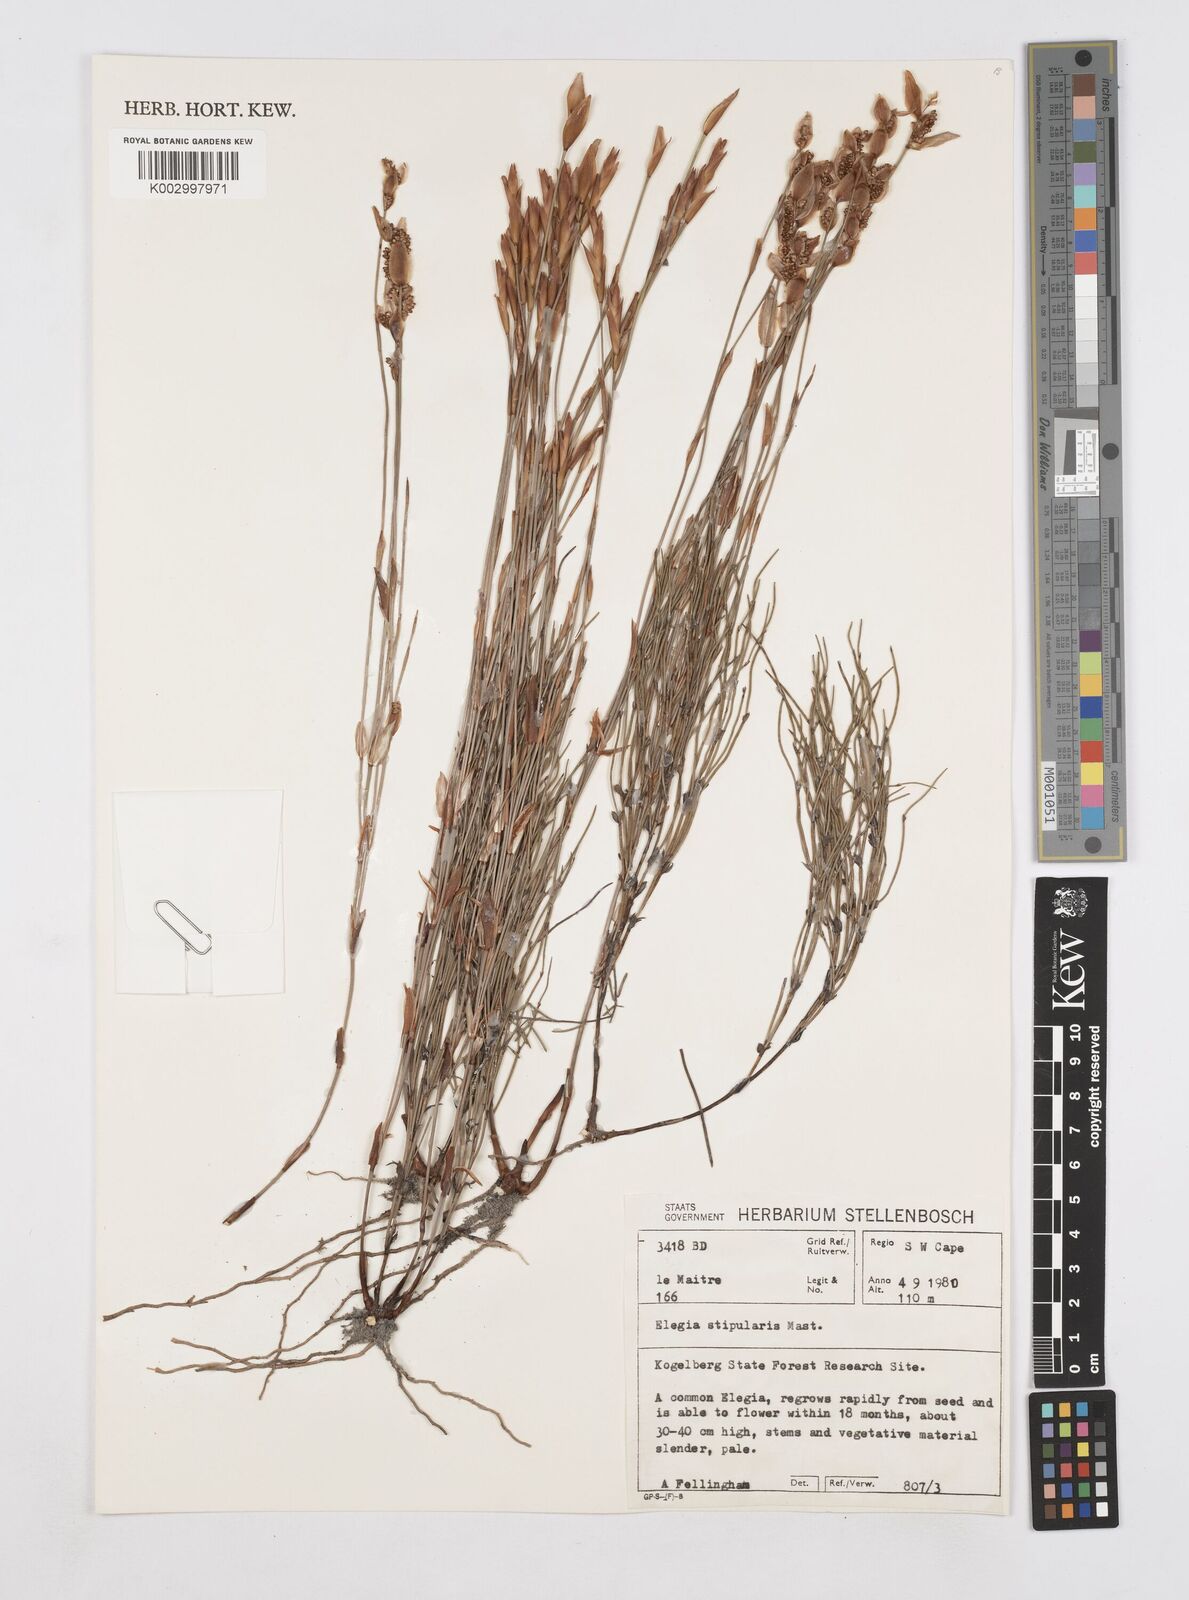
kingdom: Plantae
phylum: Tracheophyta
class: Liliopsida
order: Poales
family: Restionaceae
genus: Elegia
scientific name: Elegia stipularis
